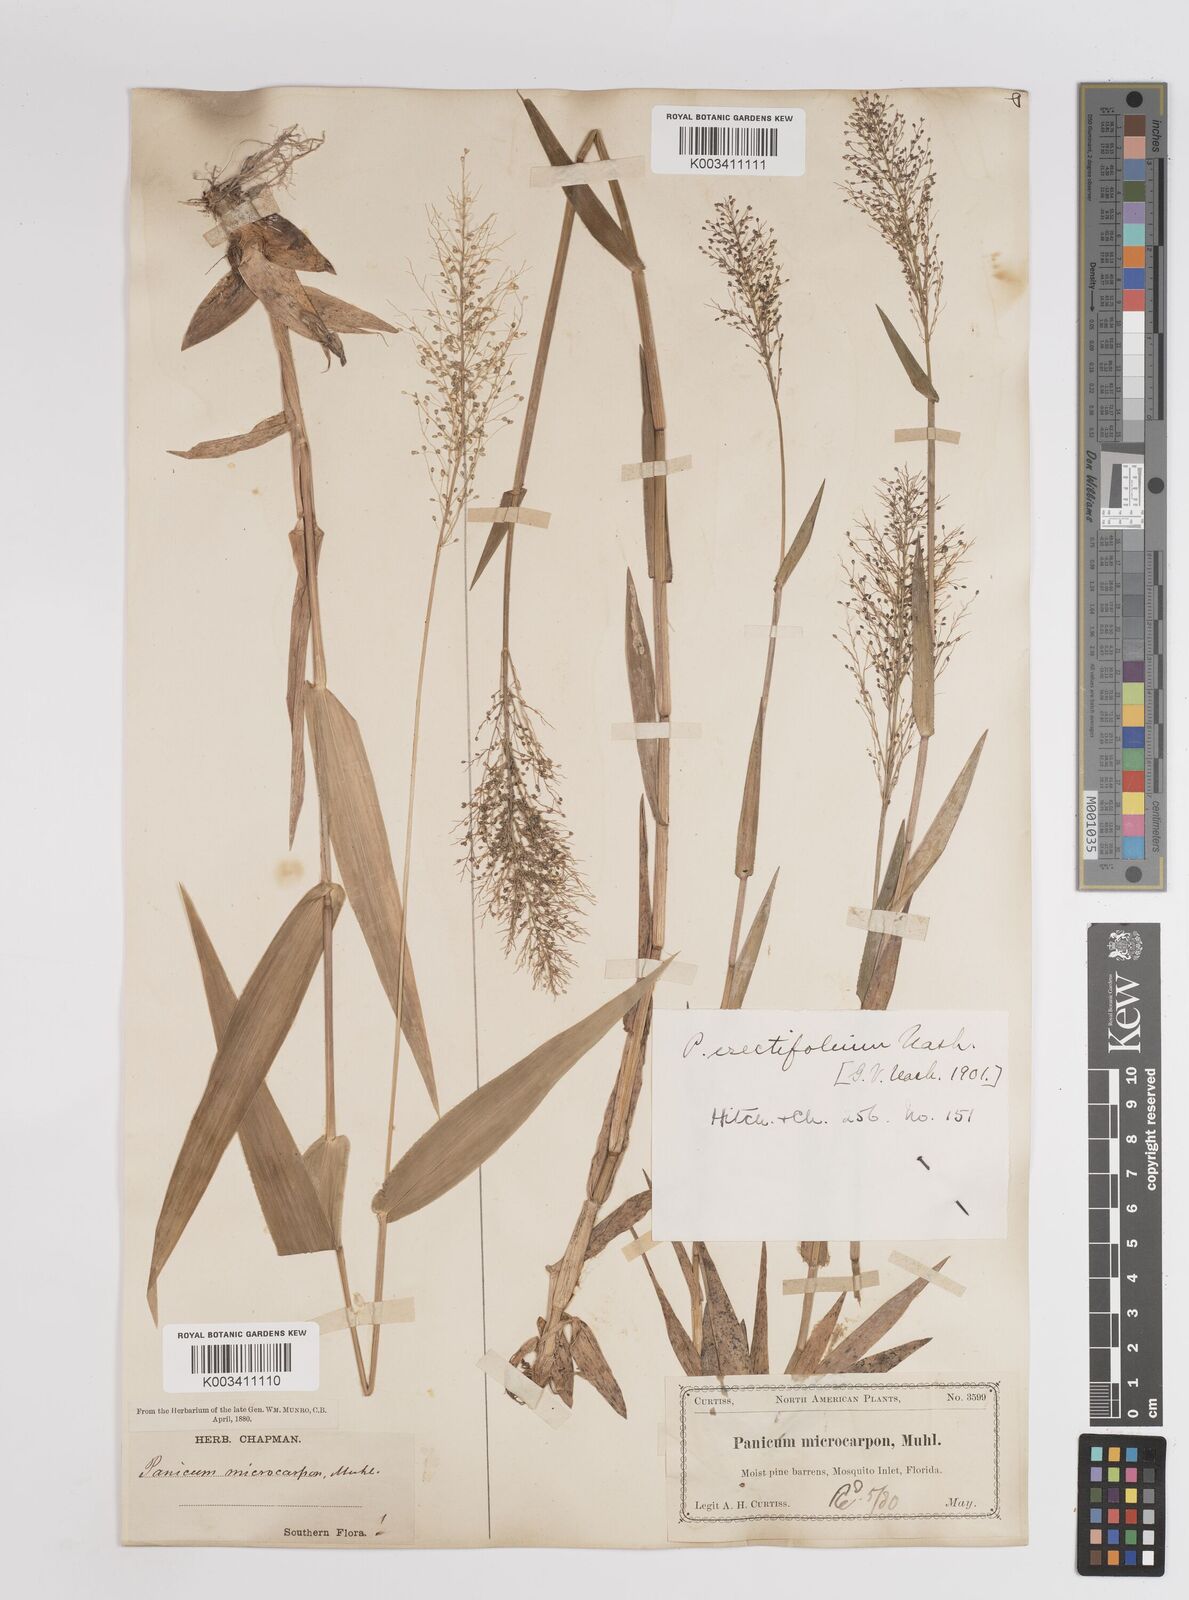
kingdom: Plantae
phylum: Tracheophyta
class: Liliopsida
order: Poales
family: Poaceae
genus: Dichanthelium
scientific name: Dichanthelium erectifolium
